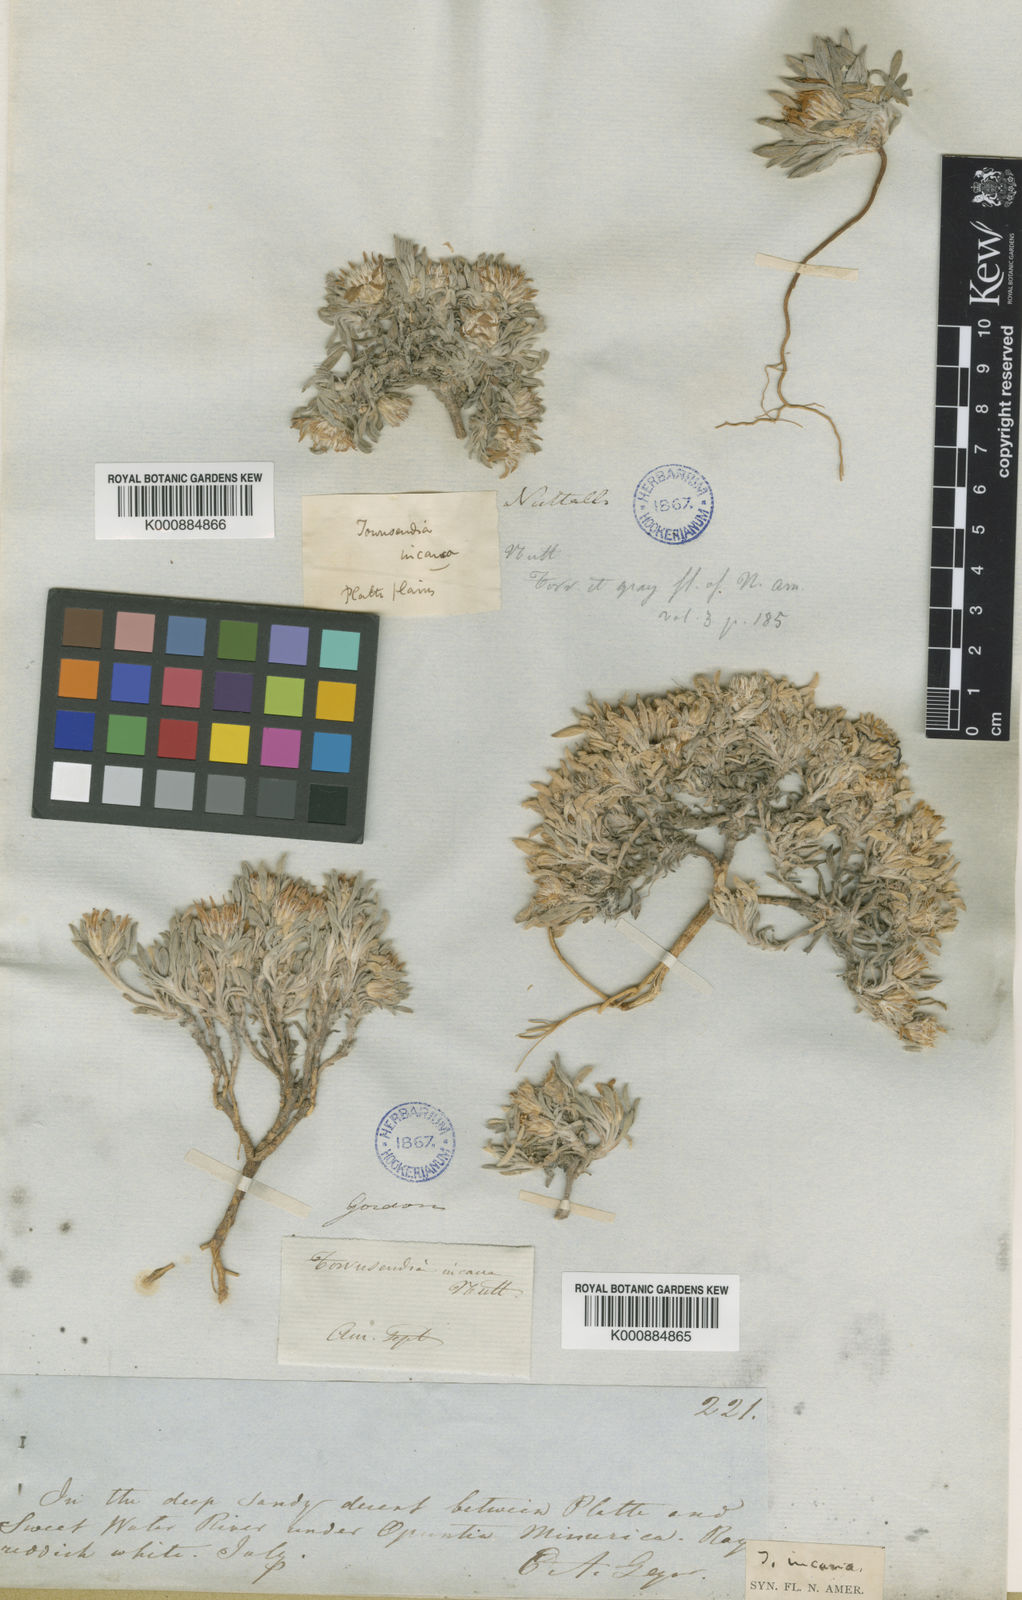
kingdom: Plantae
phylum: Tracheophyta
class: Magnoliopsida
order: Asterales
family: Asteraceae
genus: Townsendia
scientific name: Townsendia incana
